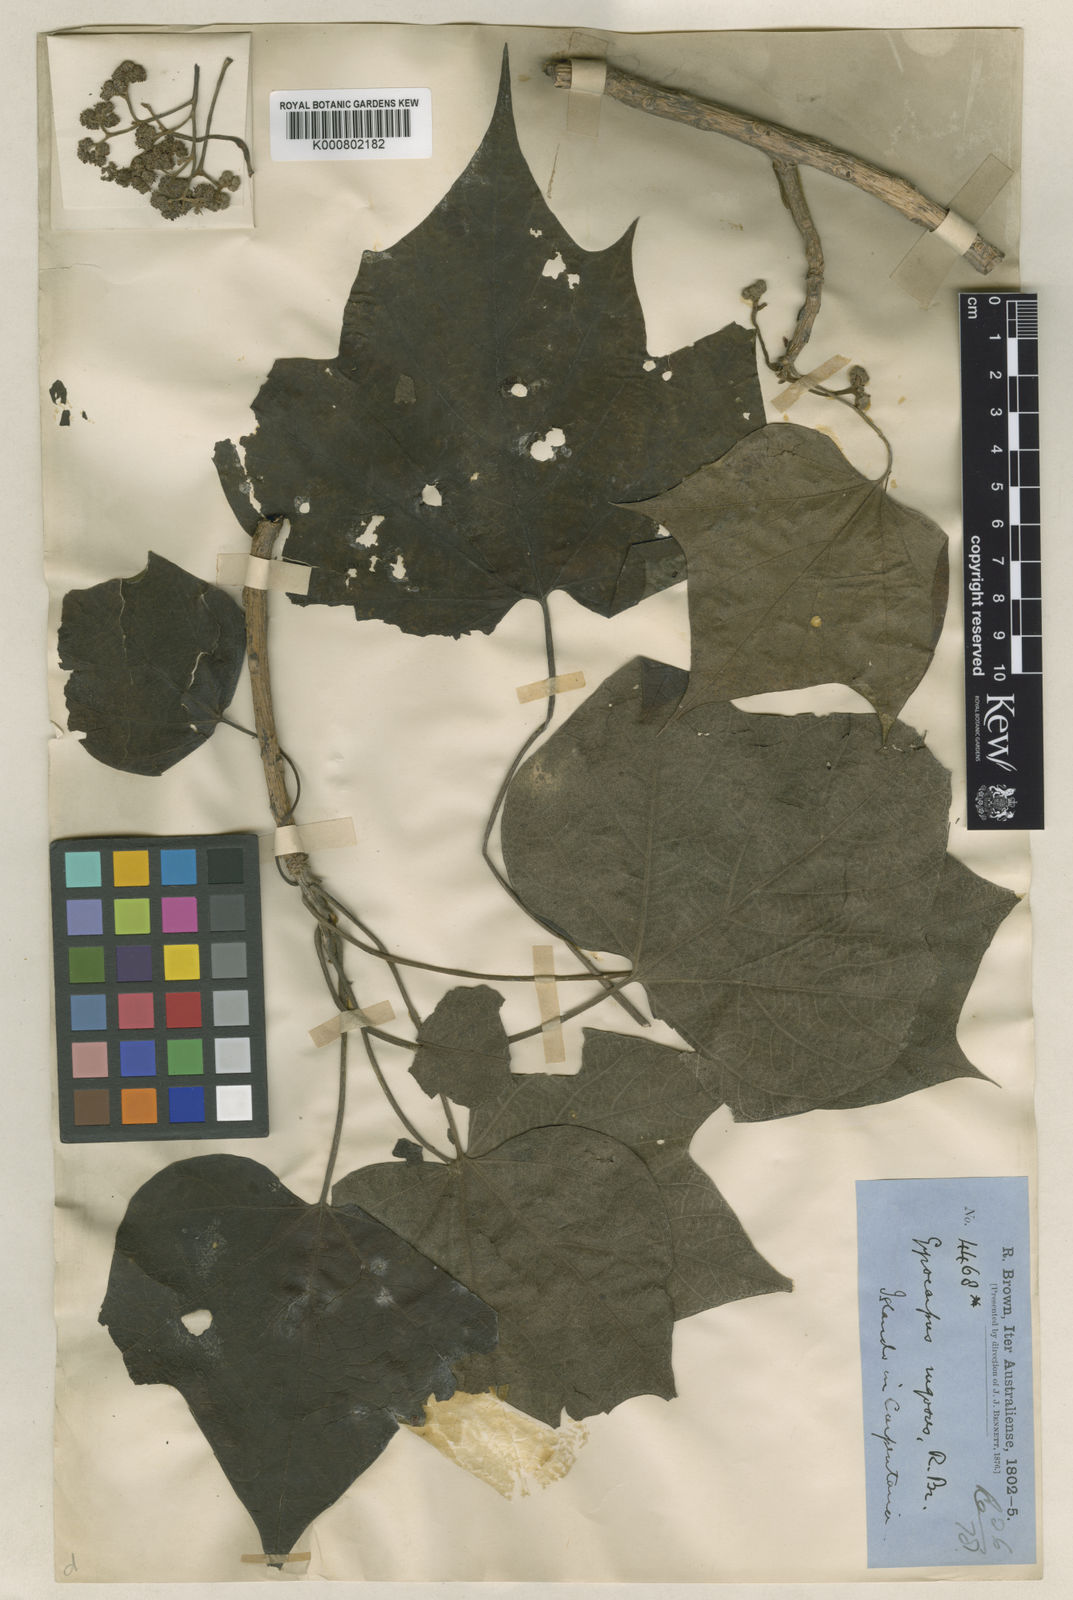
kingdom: Plantae
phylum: Tracheophyta
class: Magnoliopsida
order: Laurales
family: Hernandiaceae
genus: Gyrocarpus
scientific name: Gyrocarpus americanus
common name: Gyro damson
